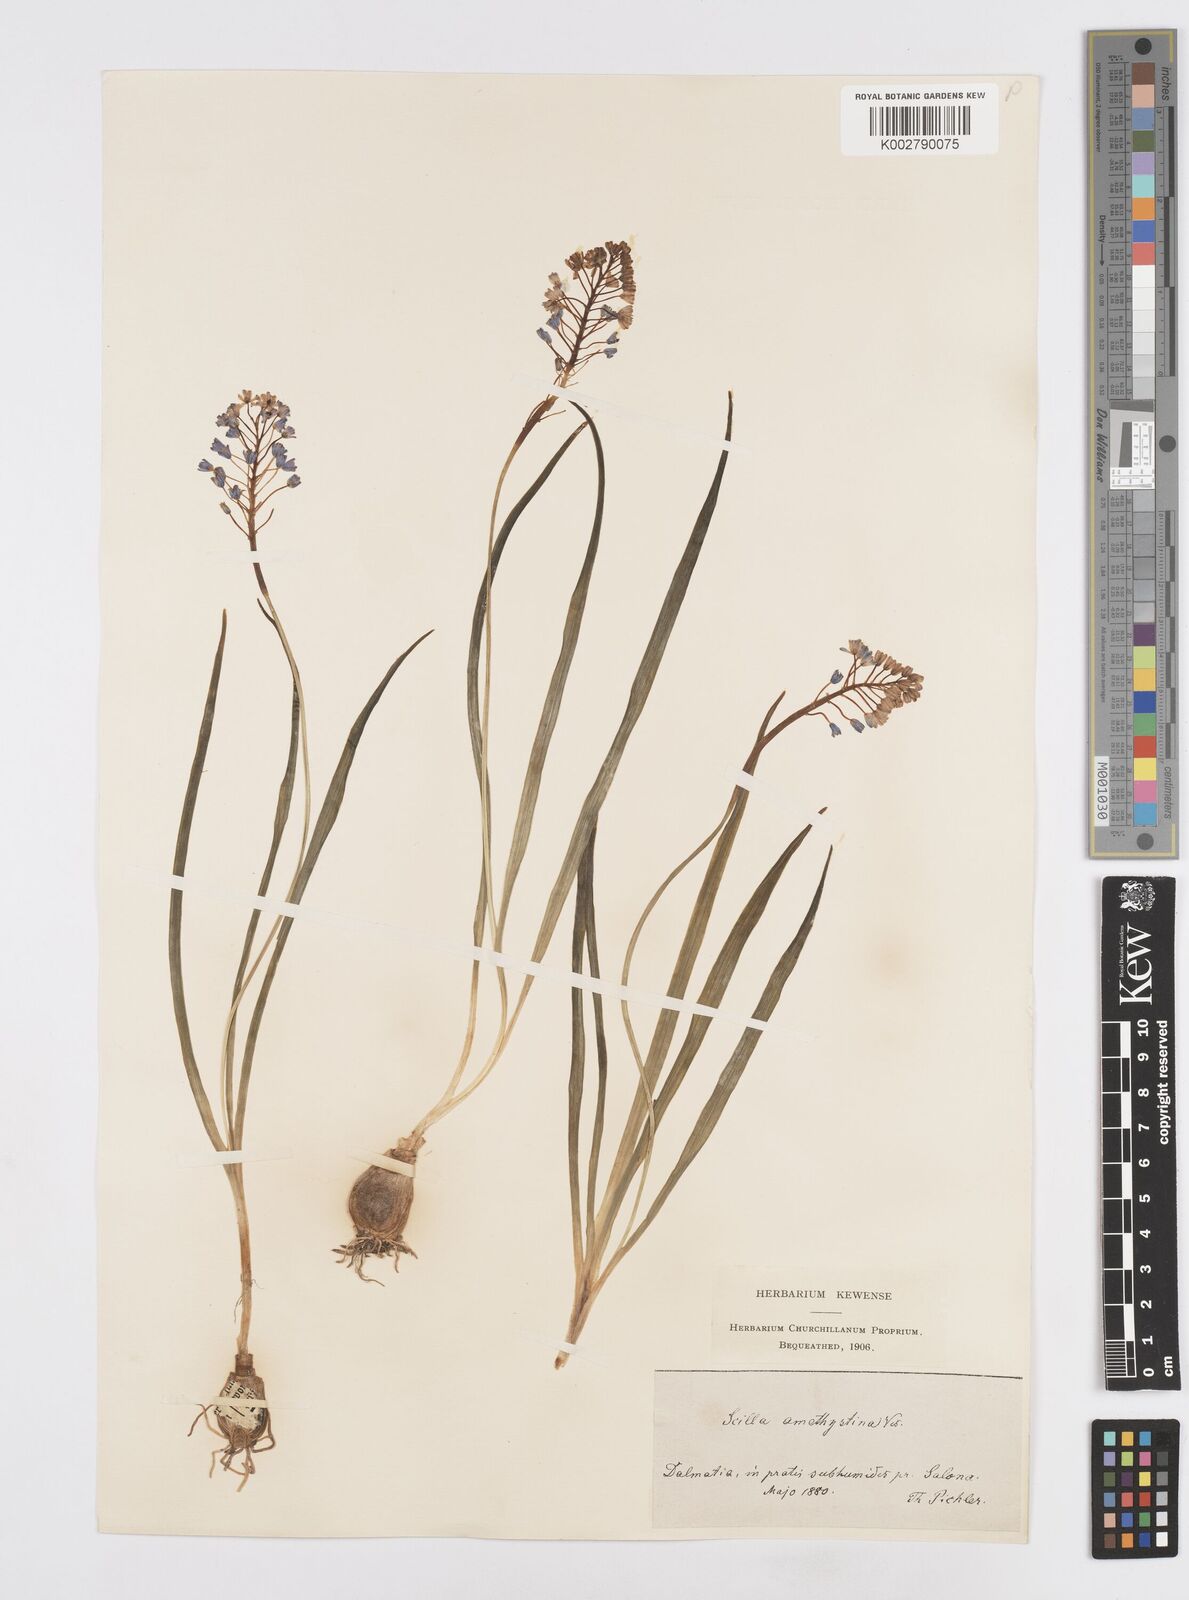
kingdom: Plantae
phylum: Tracheophyta
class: Liliopsida
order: Asparagales
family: Asparagaceae
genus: Scilla
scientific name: Scilla litardierei
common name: Amethyst meadow squill
